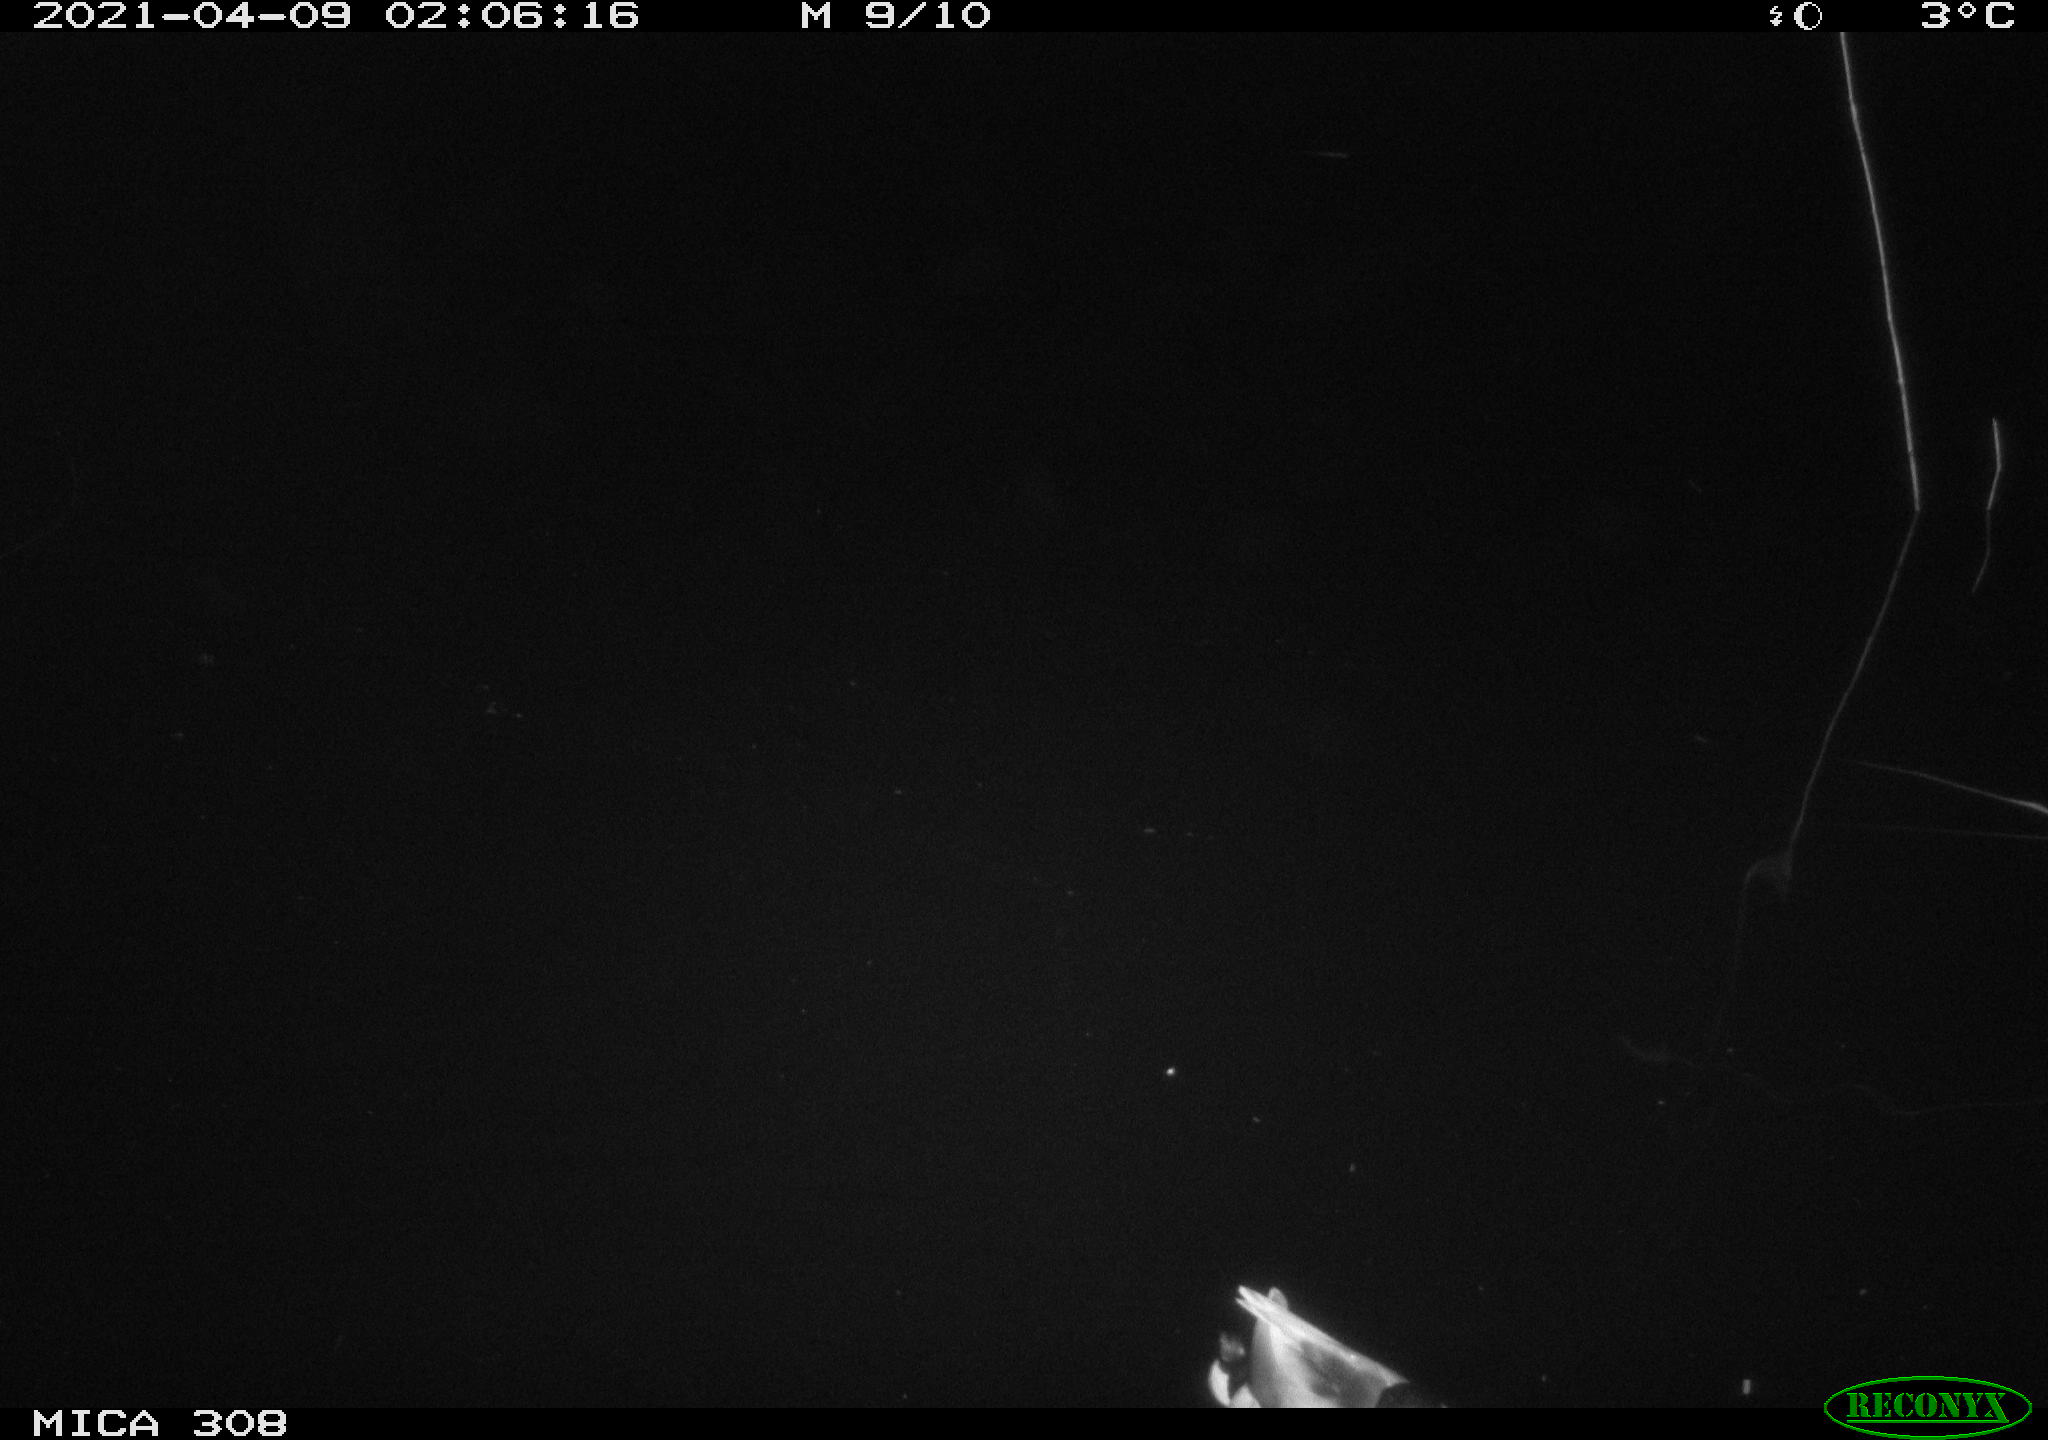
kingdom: Animalia
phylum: Chordata
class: Aves
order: Anseriformes
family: Anatidae
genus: Anas
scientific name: Anas platyrhynchos
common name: Mallard
